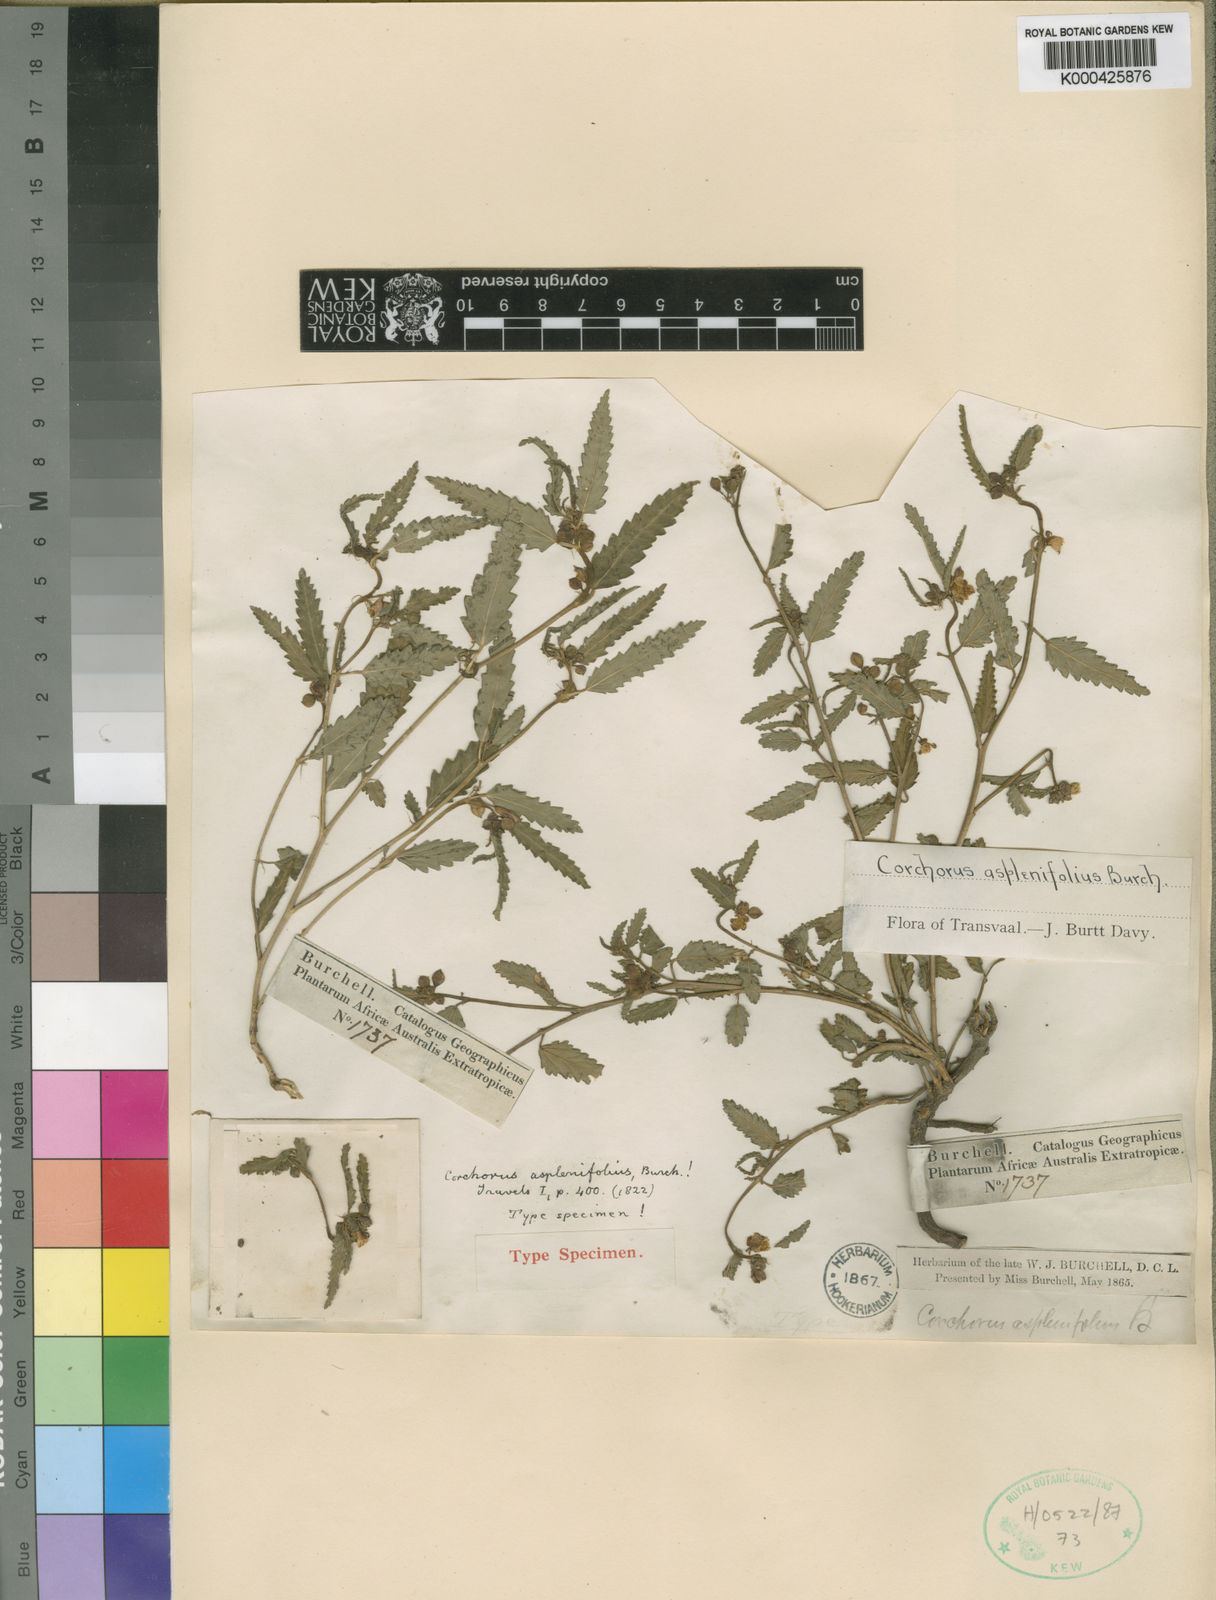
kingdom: Plantae
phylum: Tracheophyta
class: Magnoliopsida
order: Malvales
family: Malvaceae
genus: Corchorus
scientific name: Corchorus asplenifolius
